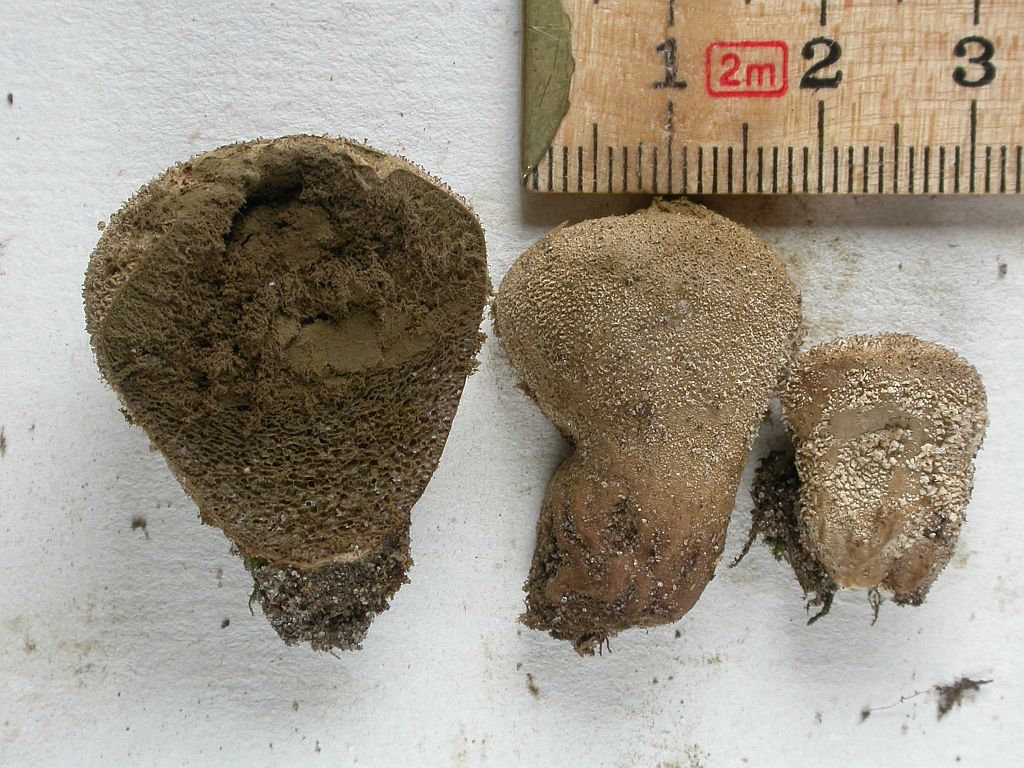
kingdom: Fungi
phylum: Basidiomycota
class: Agaricomycetes
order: Agaricales
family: Lycoperdaceae
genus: Lycoperdon
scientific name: Lycoperdon pratense
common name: flad støvbold
